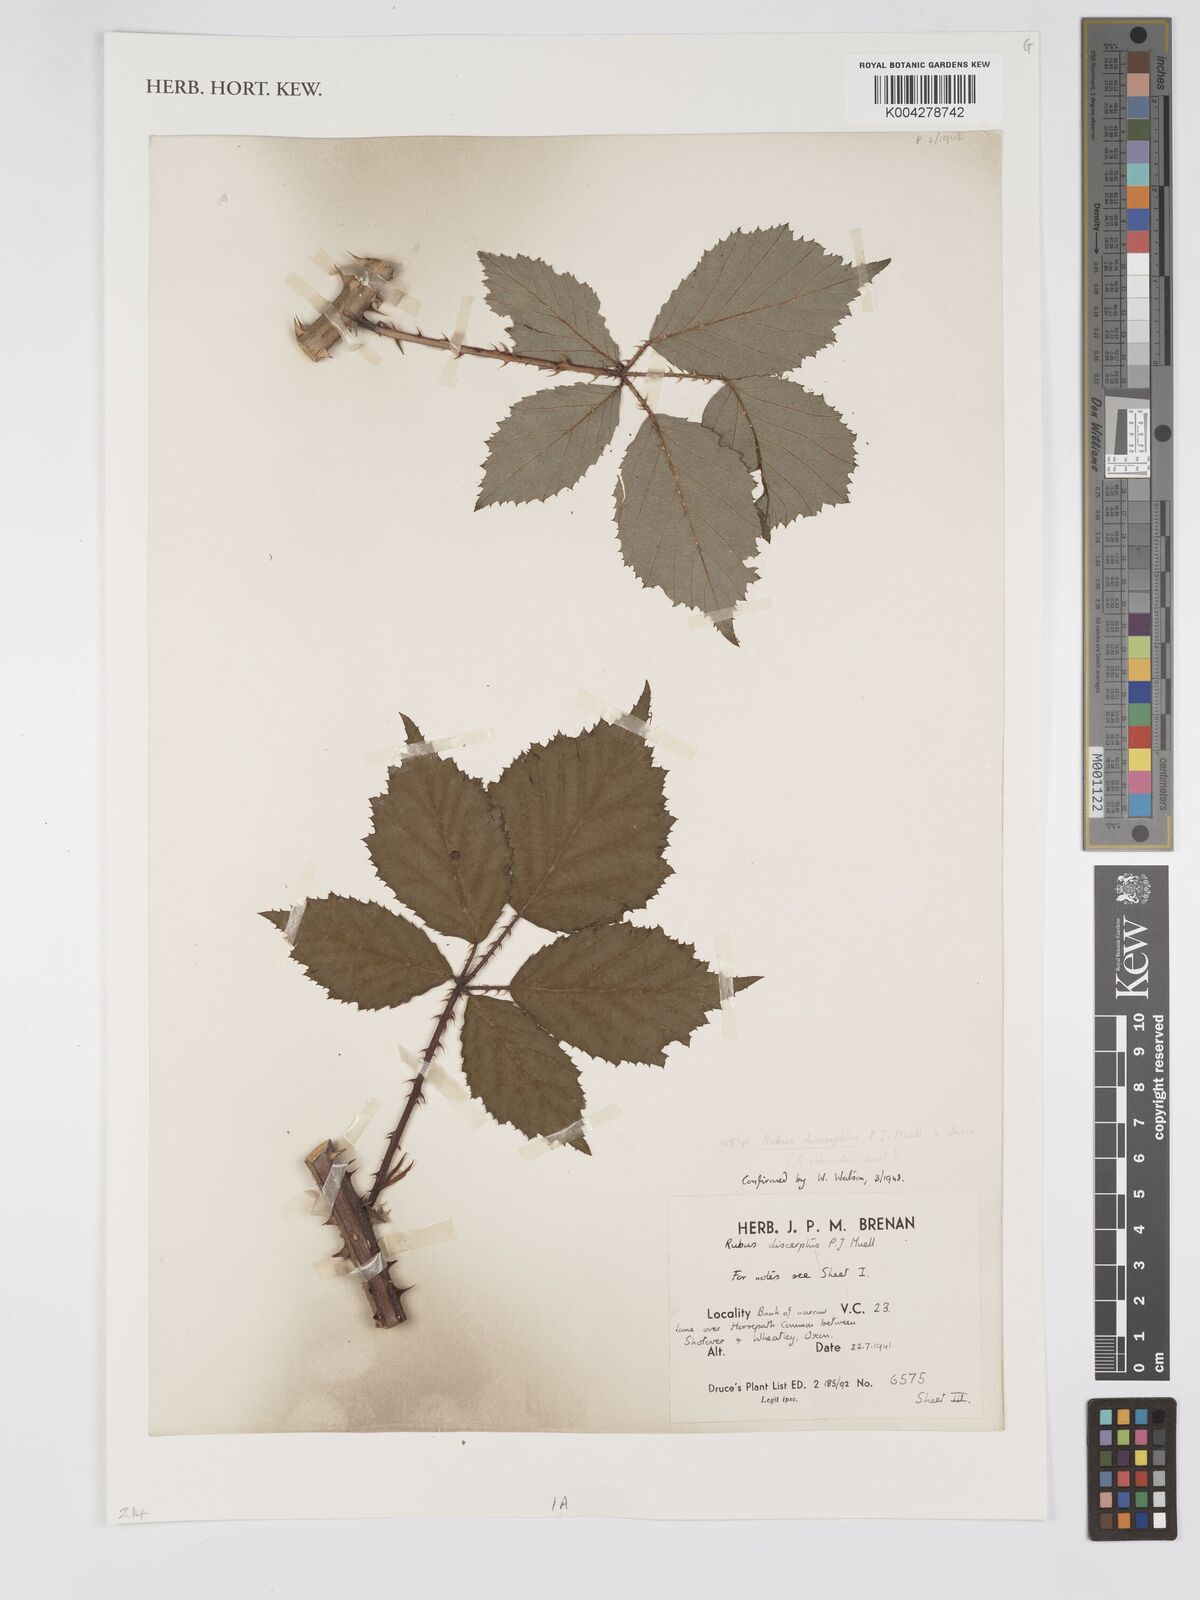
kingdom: Plantae
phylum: Tracheophyta
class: Magnoliopsida
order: Rosales
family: Rosaceae
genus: Rubus
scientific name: Rubus echinatus
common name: Echinate bramble
